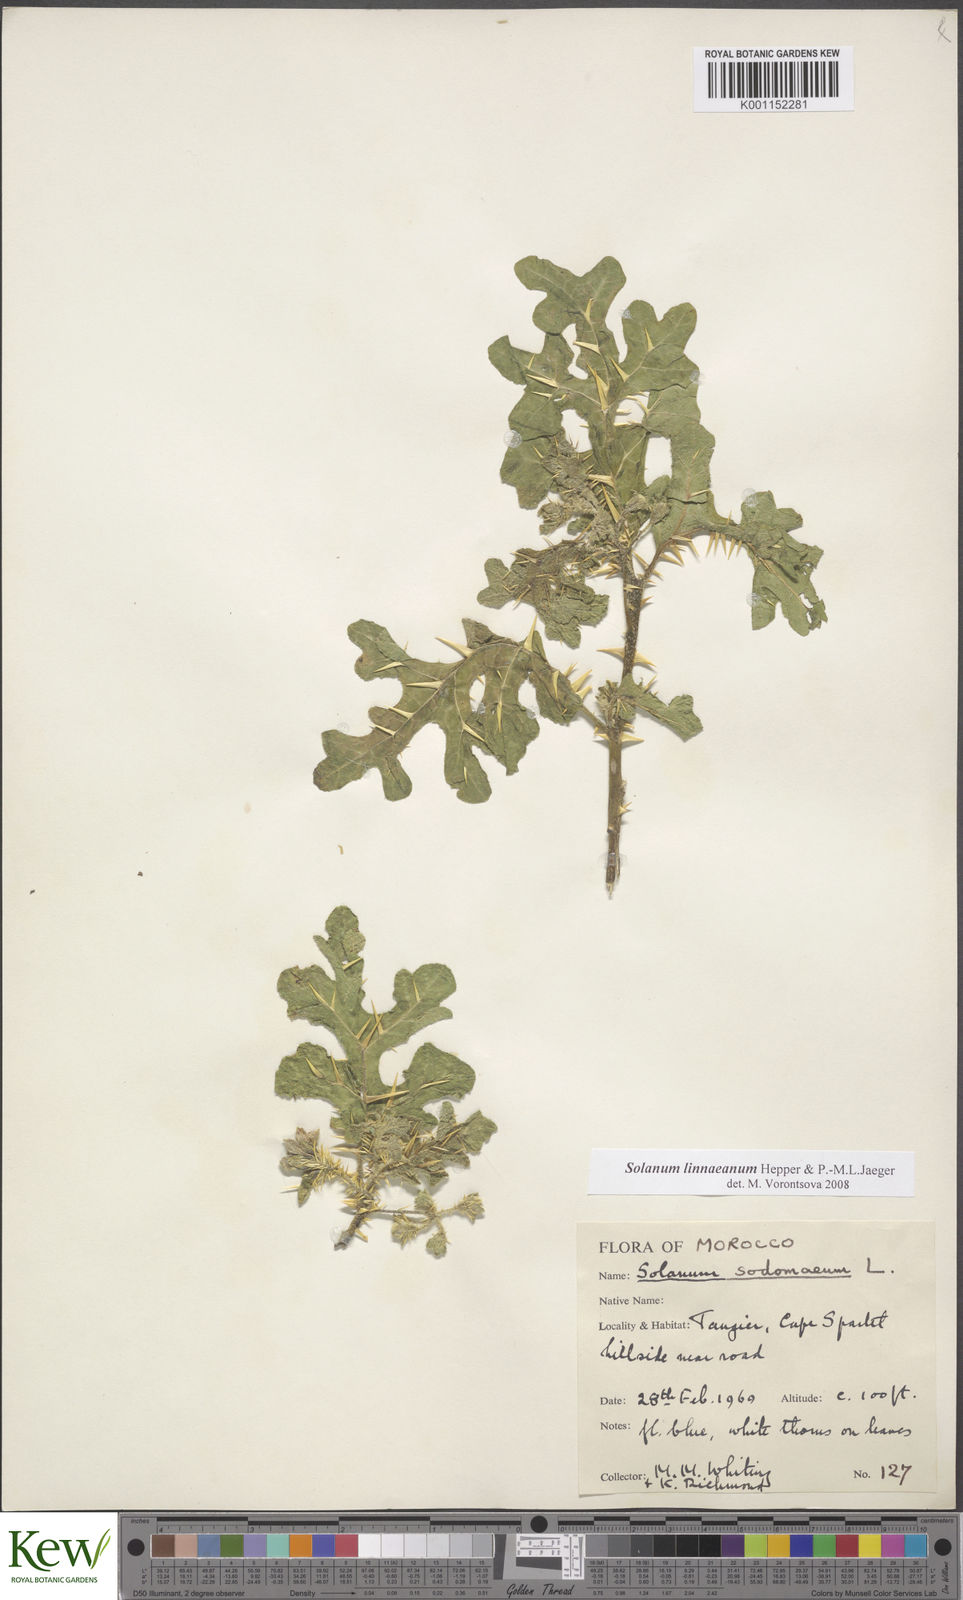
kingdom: Plantae
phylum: Tracheophyta
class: Magnoliopsida
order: Solanales
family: Solanaceae
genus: Solanum
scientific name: Solanum linnaeanum
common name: Nightshade
